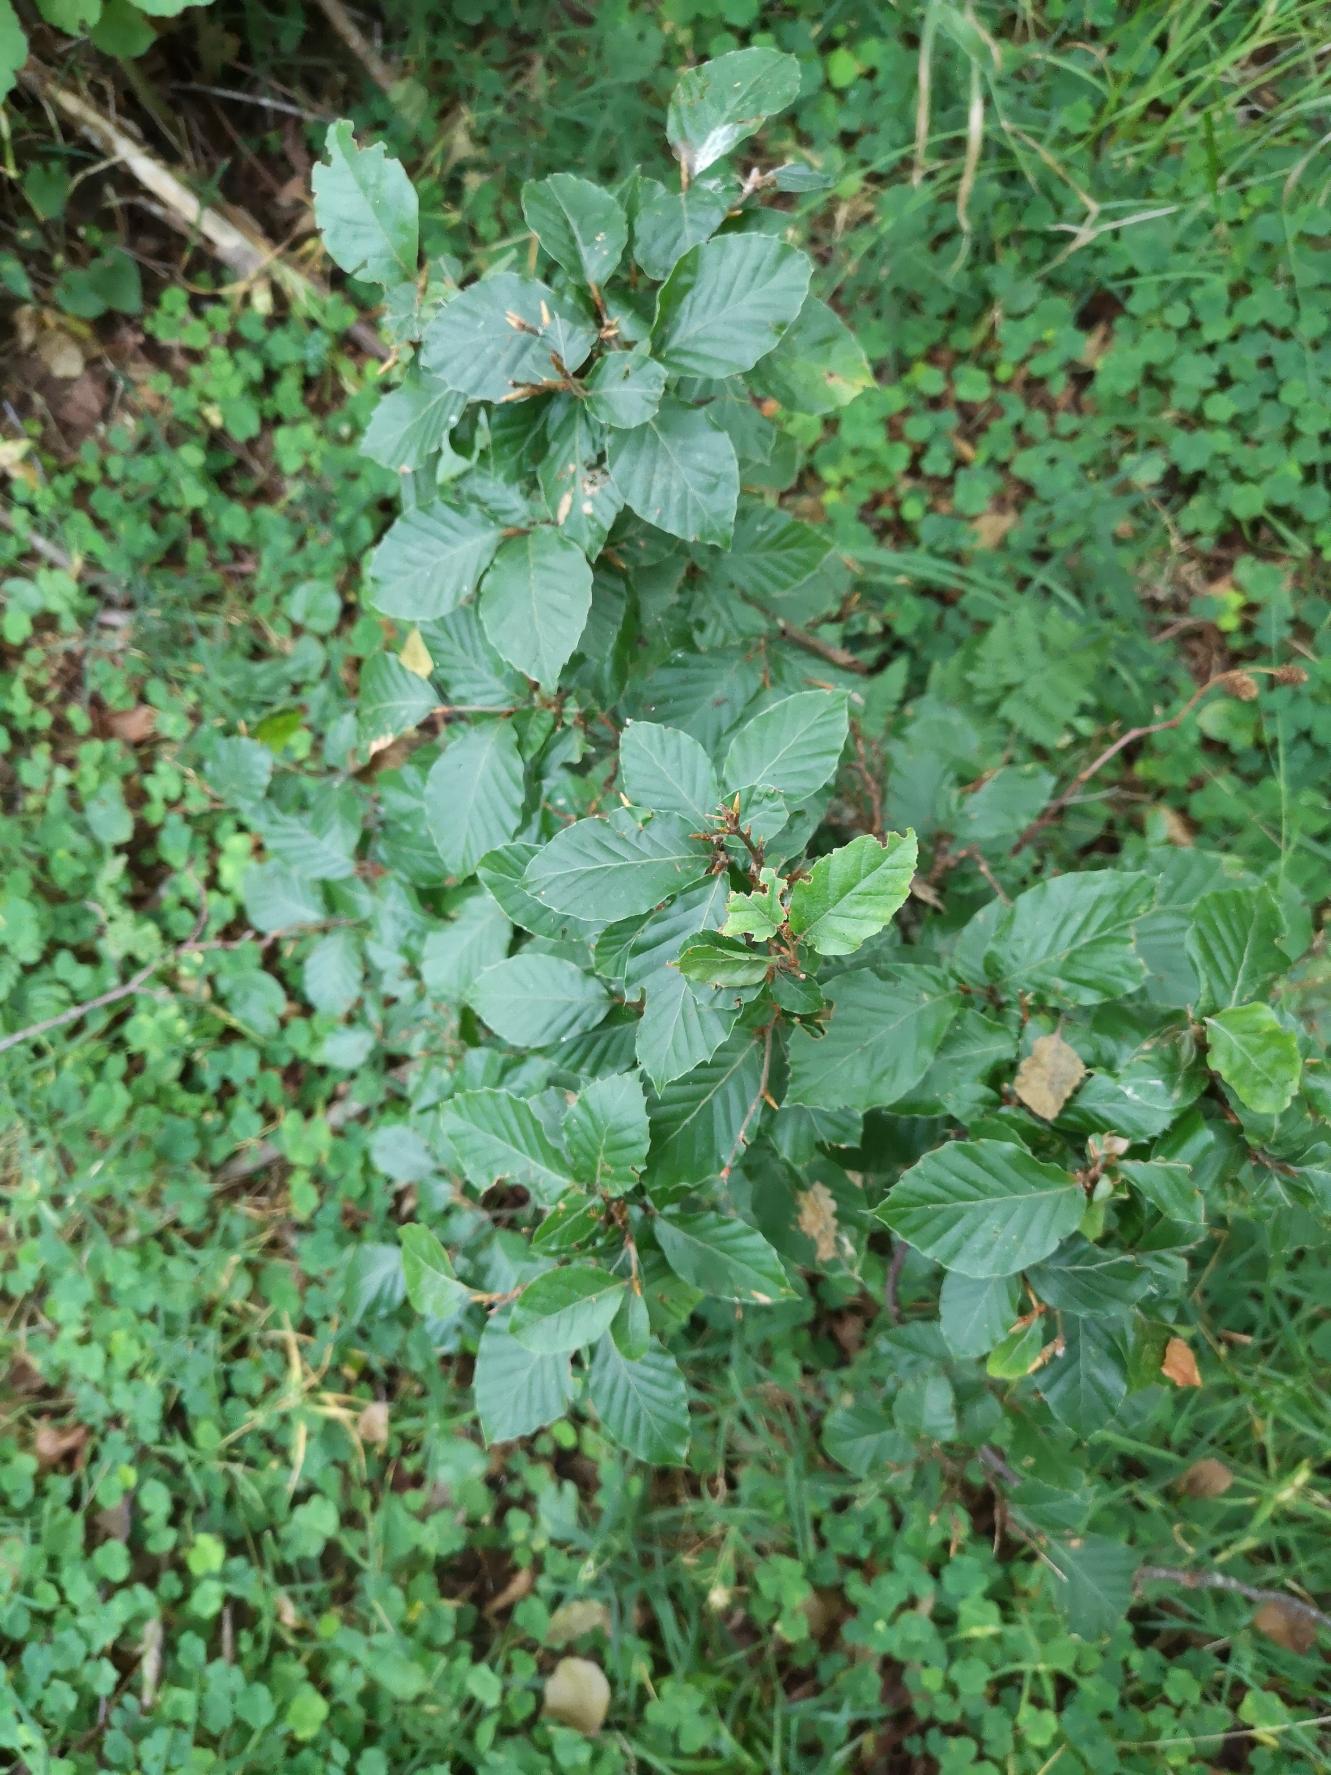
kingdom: Plantae
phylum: Tracheophyta
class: Magnoliopsida
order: Fagales
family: Fagaceae
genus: Fagus
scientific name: Fagus sylvatica
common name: Bøg
